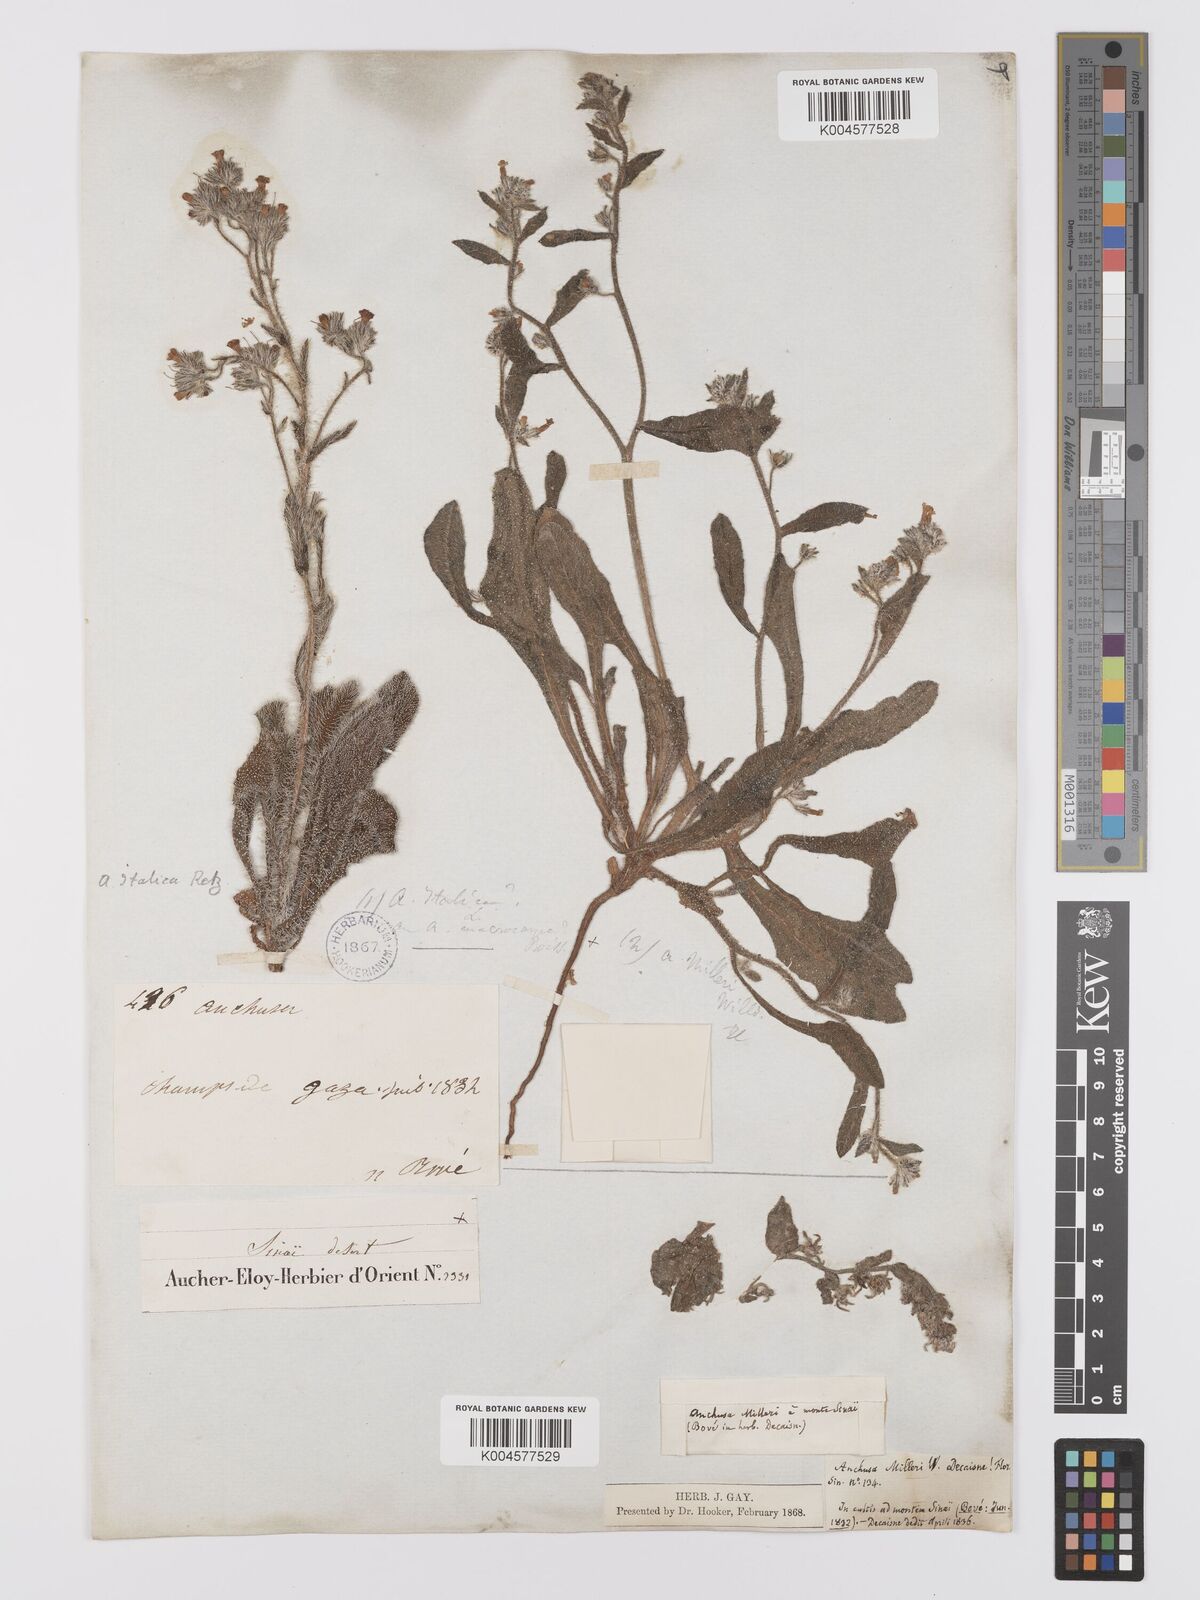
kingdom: Plantae
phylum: Tracheophyta
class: Magnoliopsida
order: Boraginales
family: Boraginaceae
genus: Anchusa
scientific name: Anchusa milleri
